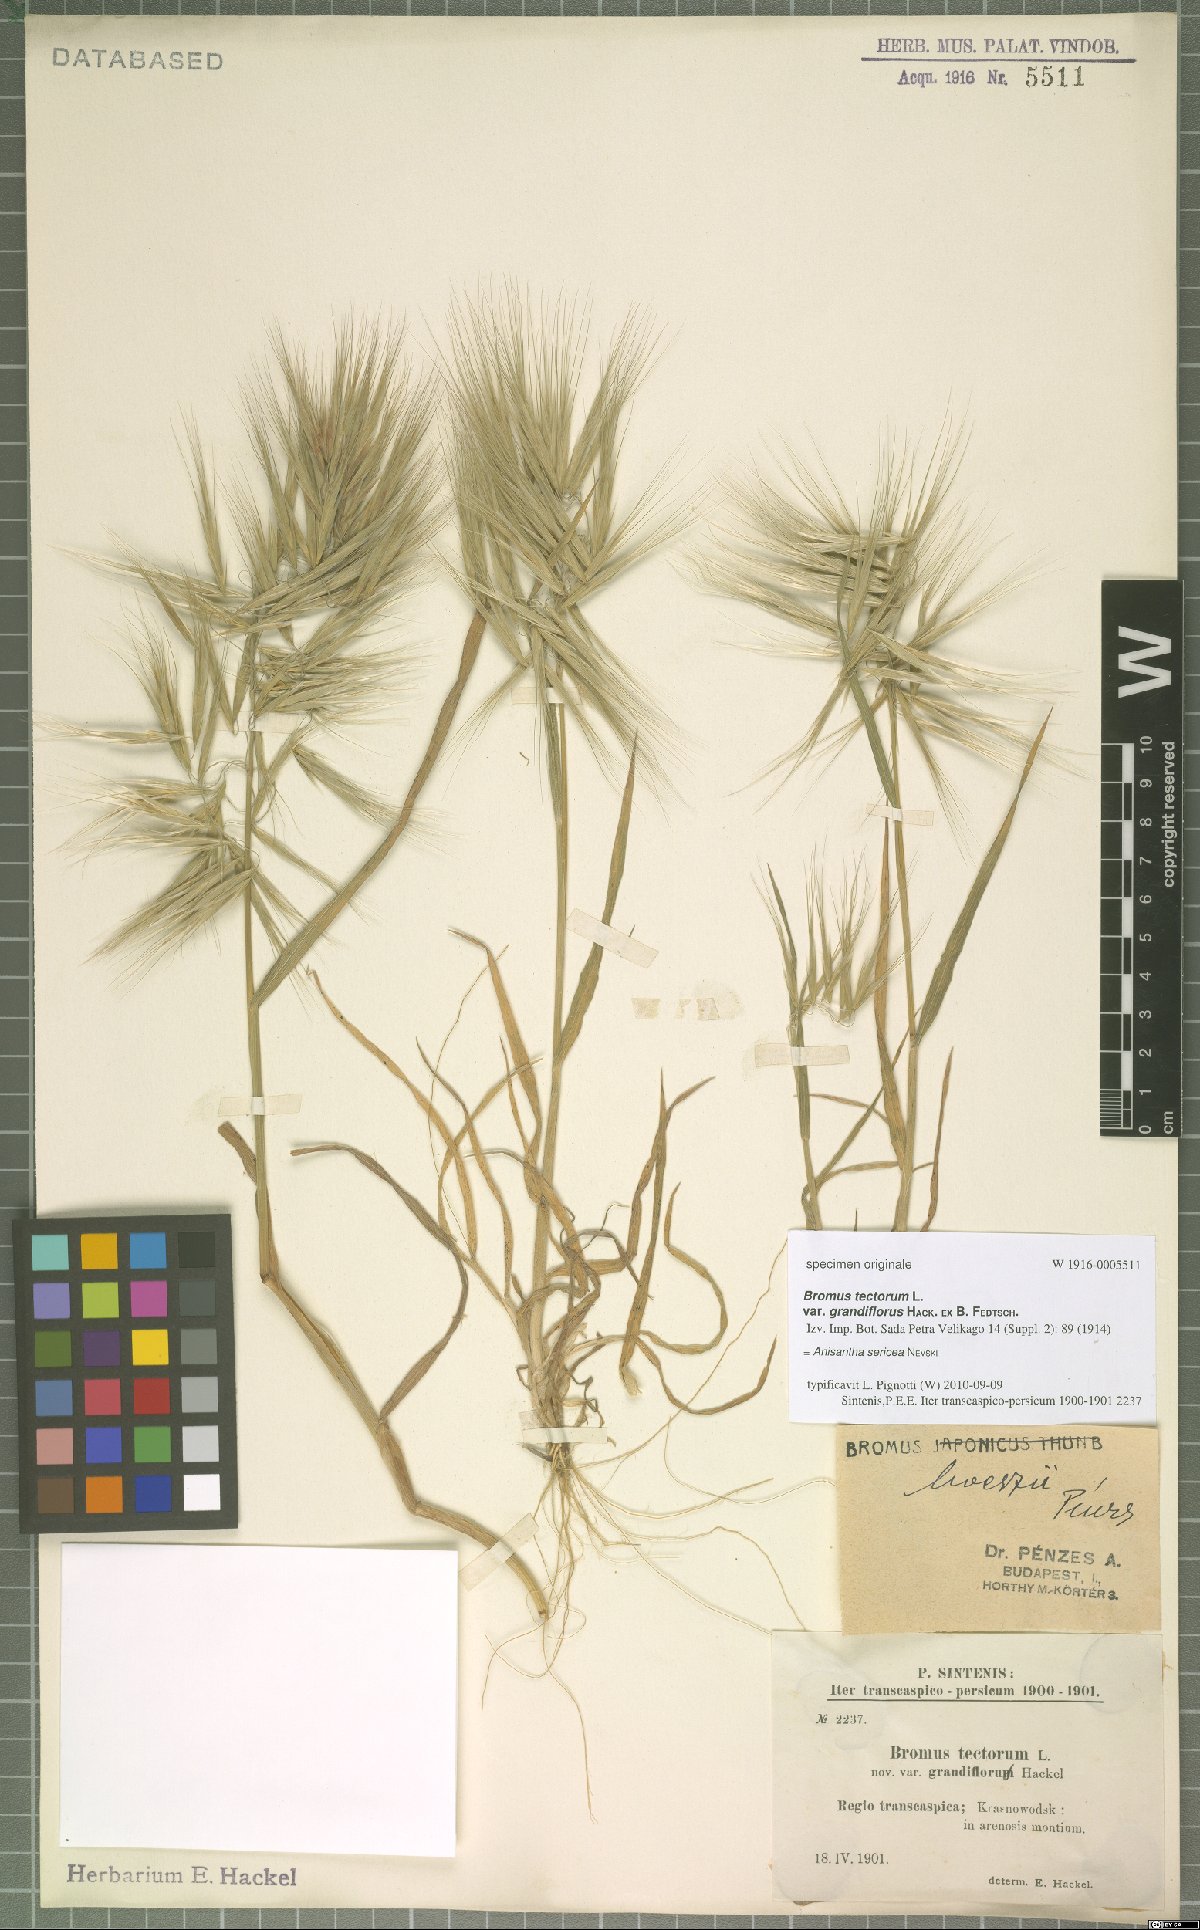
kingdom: Plantae
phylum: Tracheophyta
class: Liliopsida
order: Poales
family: Poaceae
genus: Bromus
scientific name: Bromus moeszii
